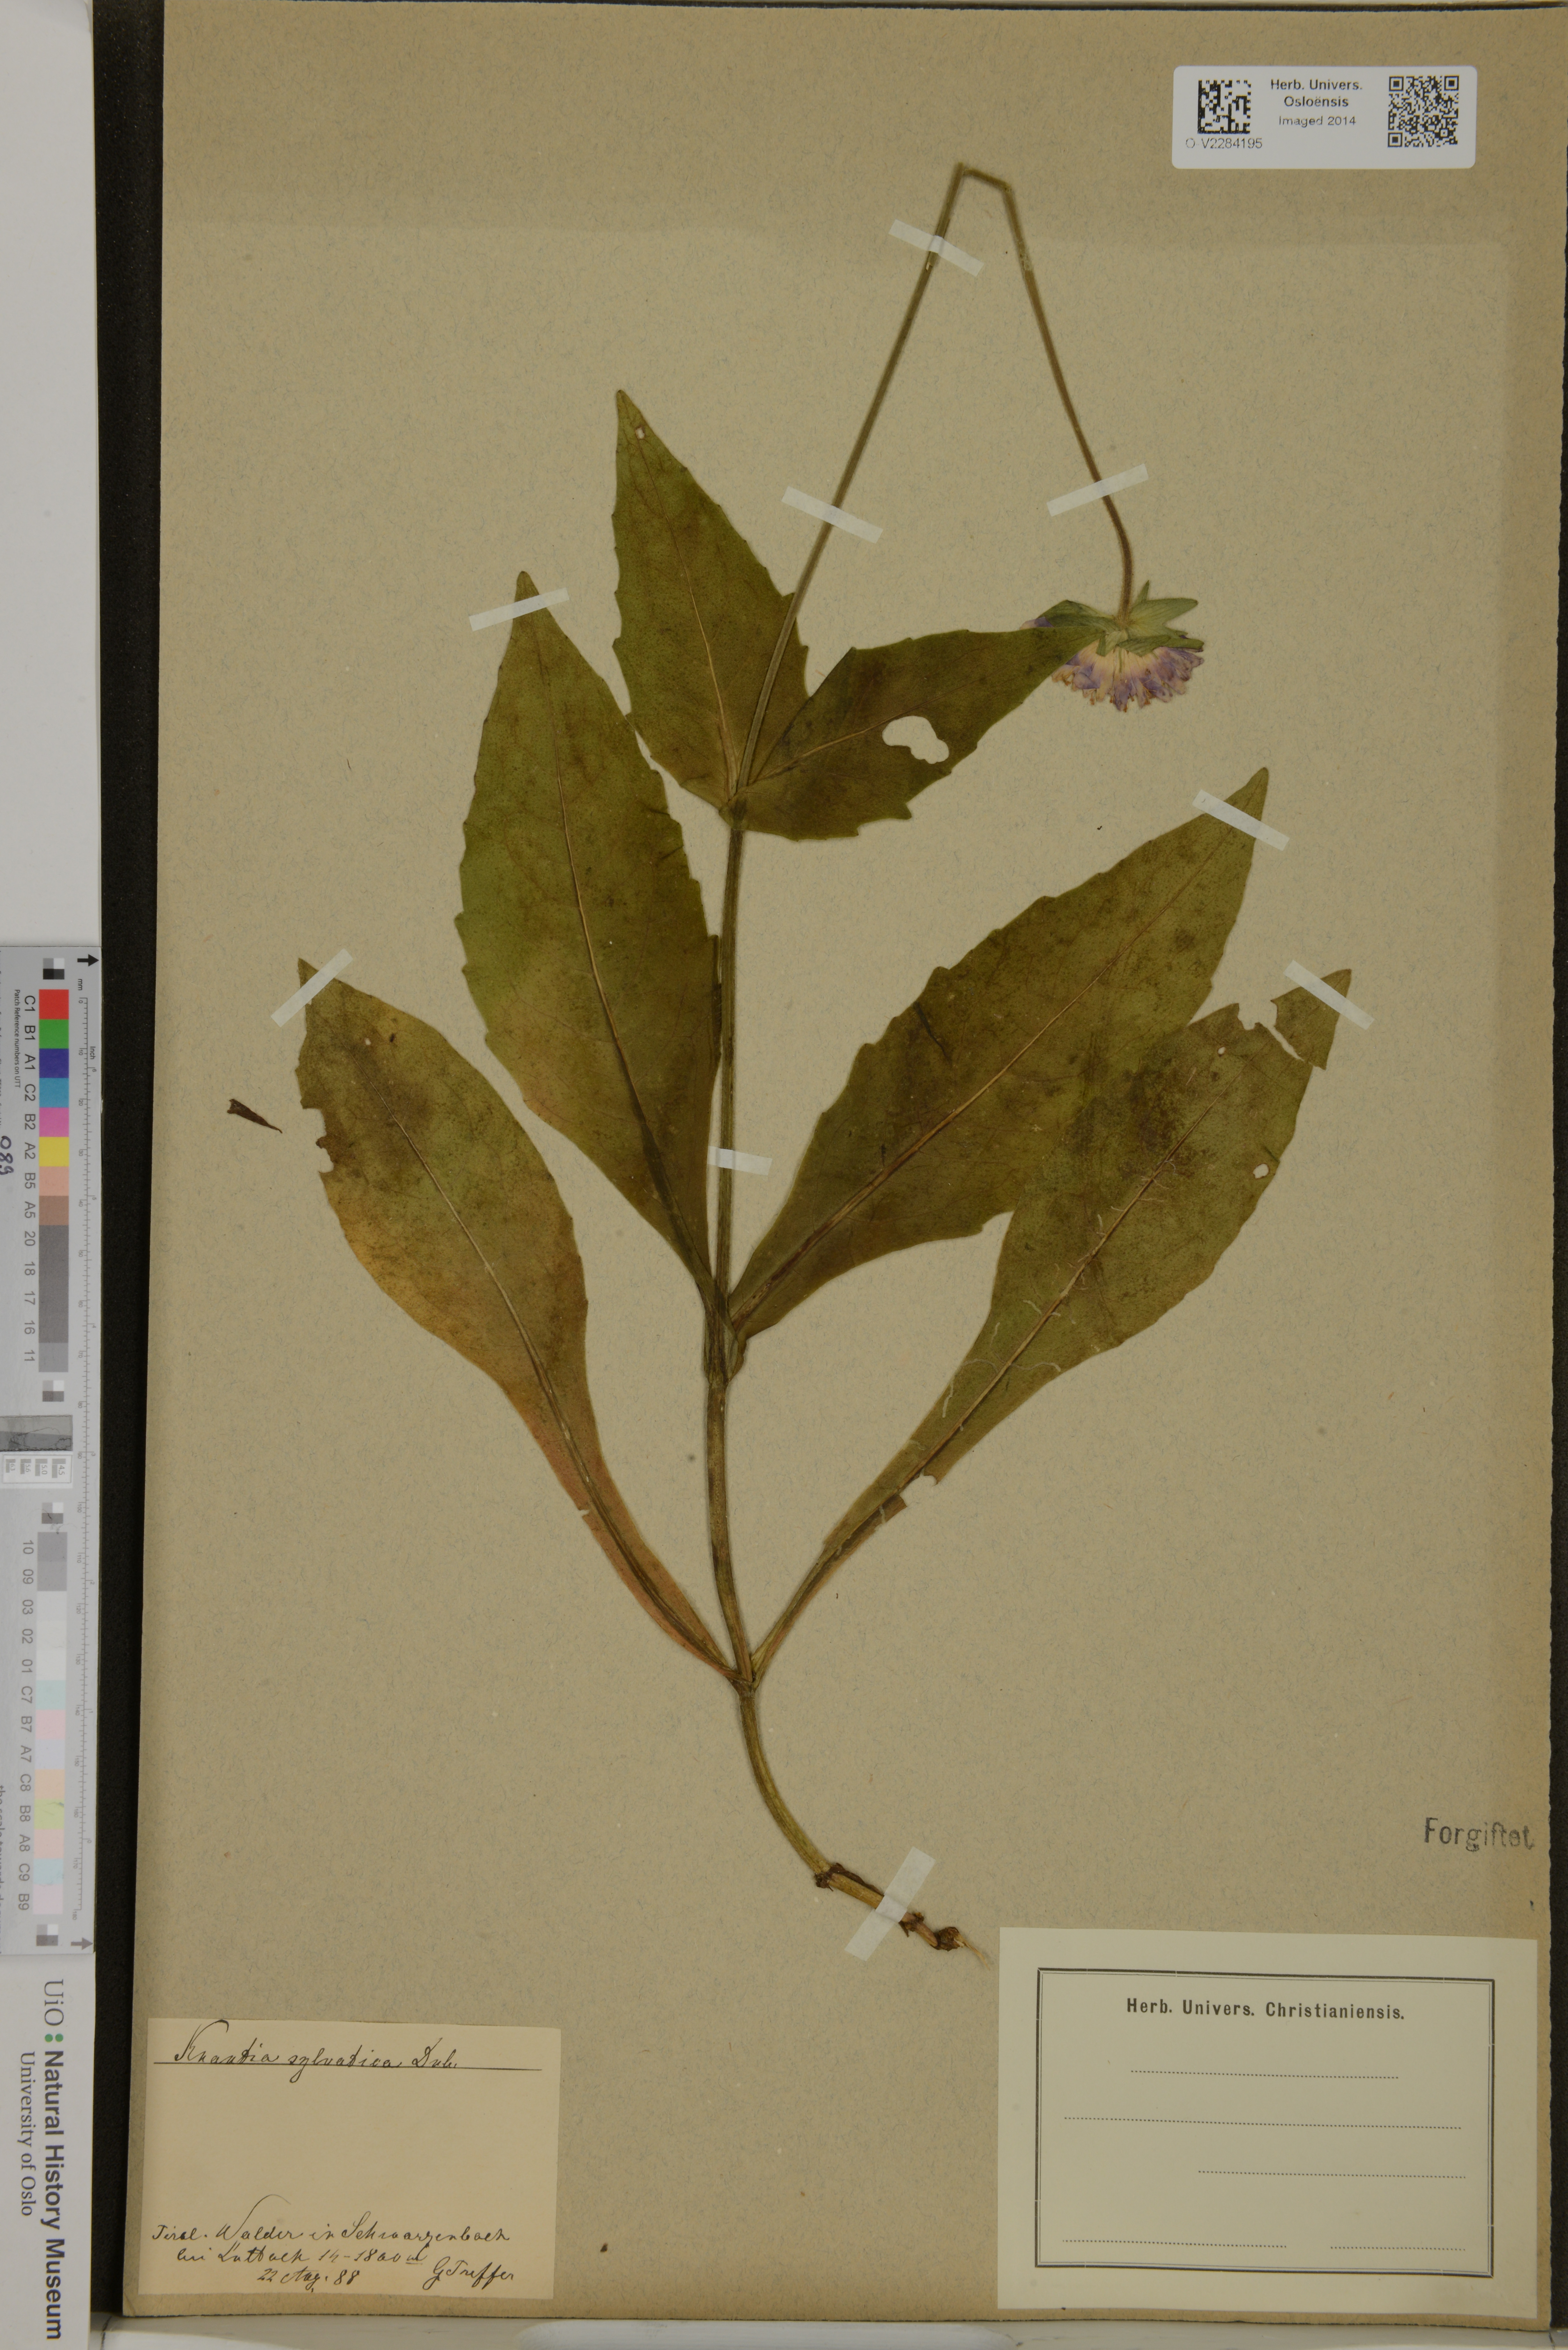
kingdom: Plantae
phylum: Tracheophyta
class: Magnoliopsida
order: Dipsacales
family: Caprifoliaceae
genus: Knautia
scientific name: Knautia drymeia
